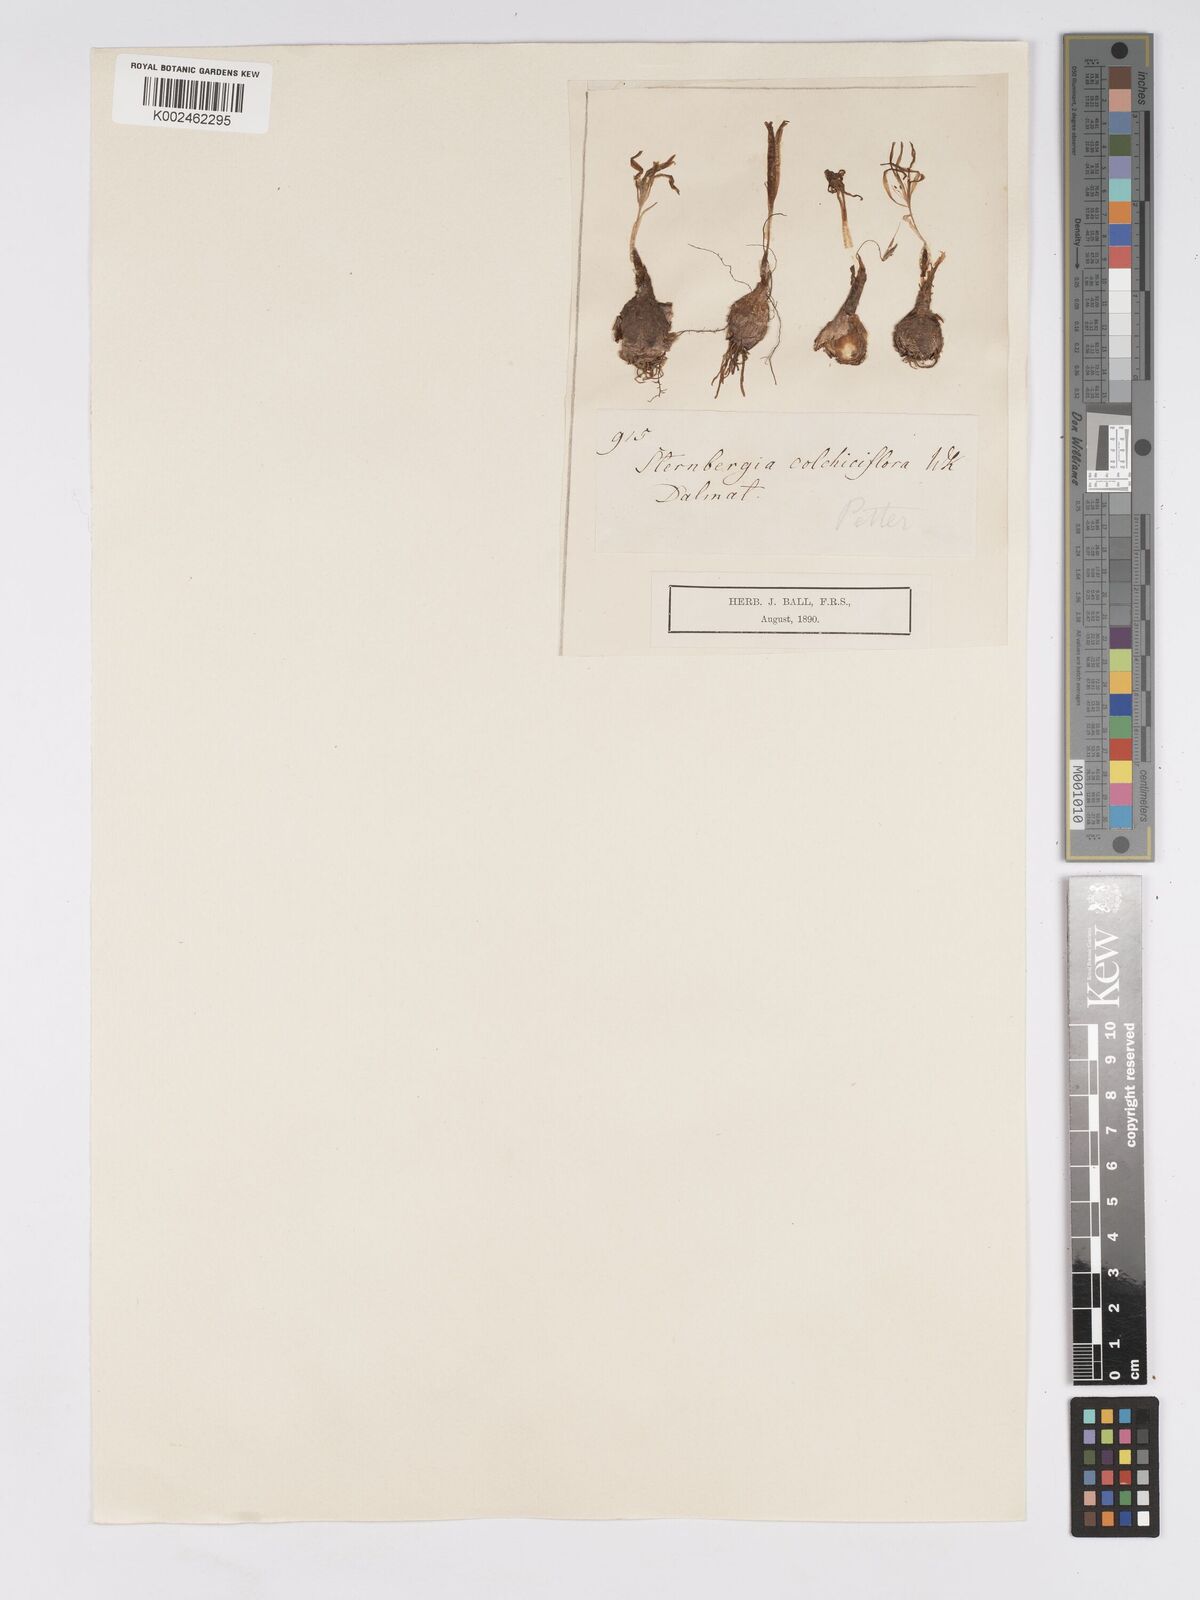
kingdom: Plantae
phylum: Tracheophyta
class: Liliopsida
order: Asparagales
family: Amaryllidaceae
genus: Sternbergia
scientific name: Sternbergia colchiciflora
